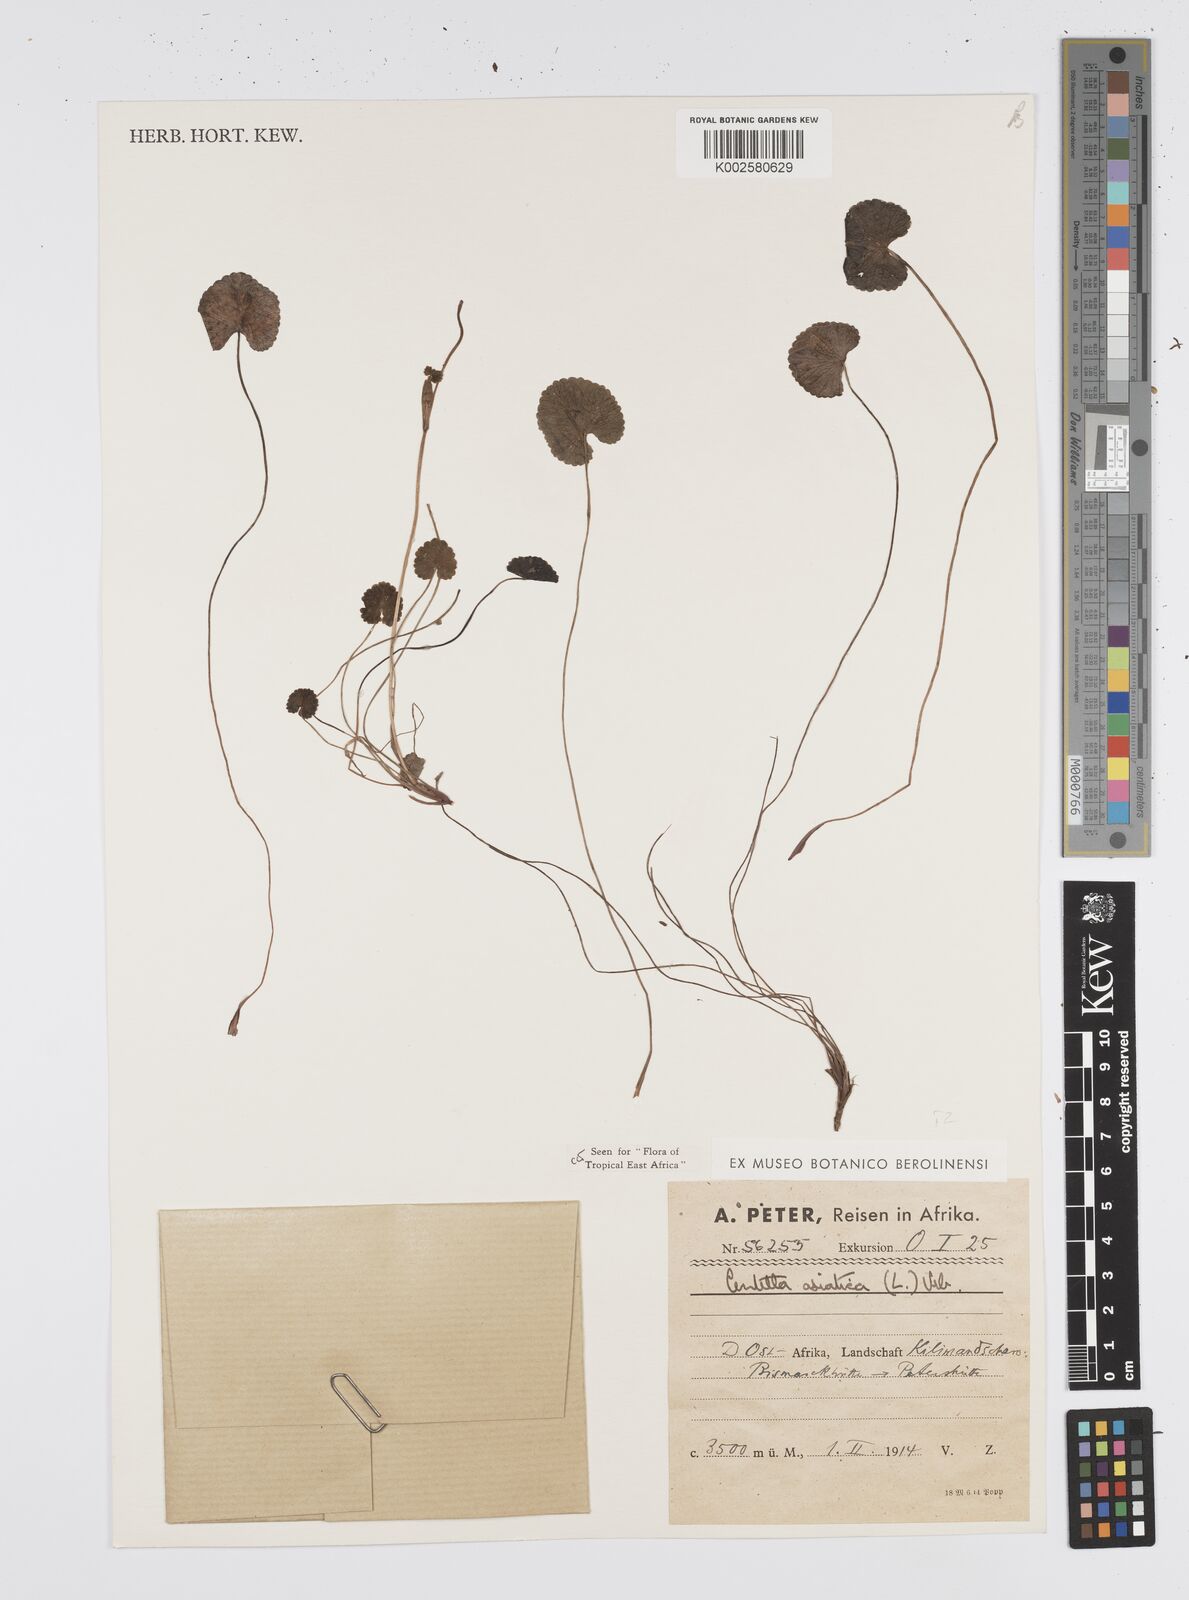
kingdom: Plantae
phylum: Tracheophyta
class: Magnoliopsida
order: Apiales
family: Apiaceae
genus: Centella
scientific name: Centella asiatica
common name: Spadeleaf
